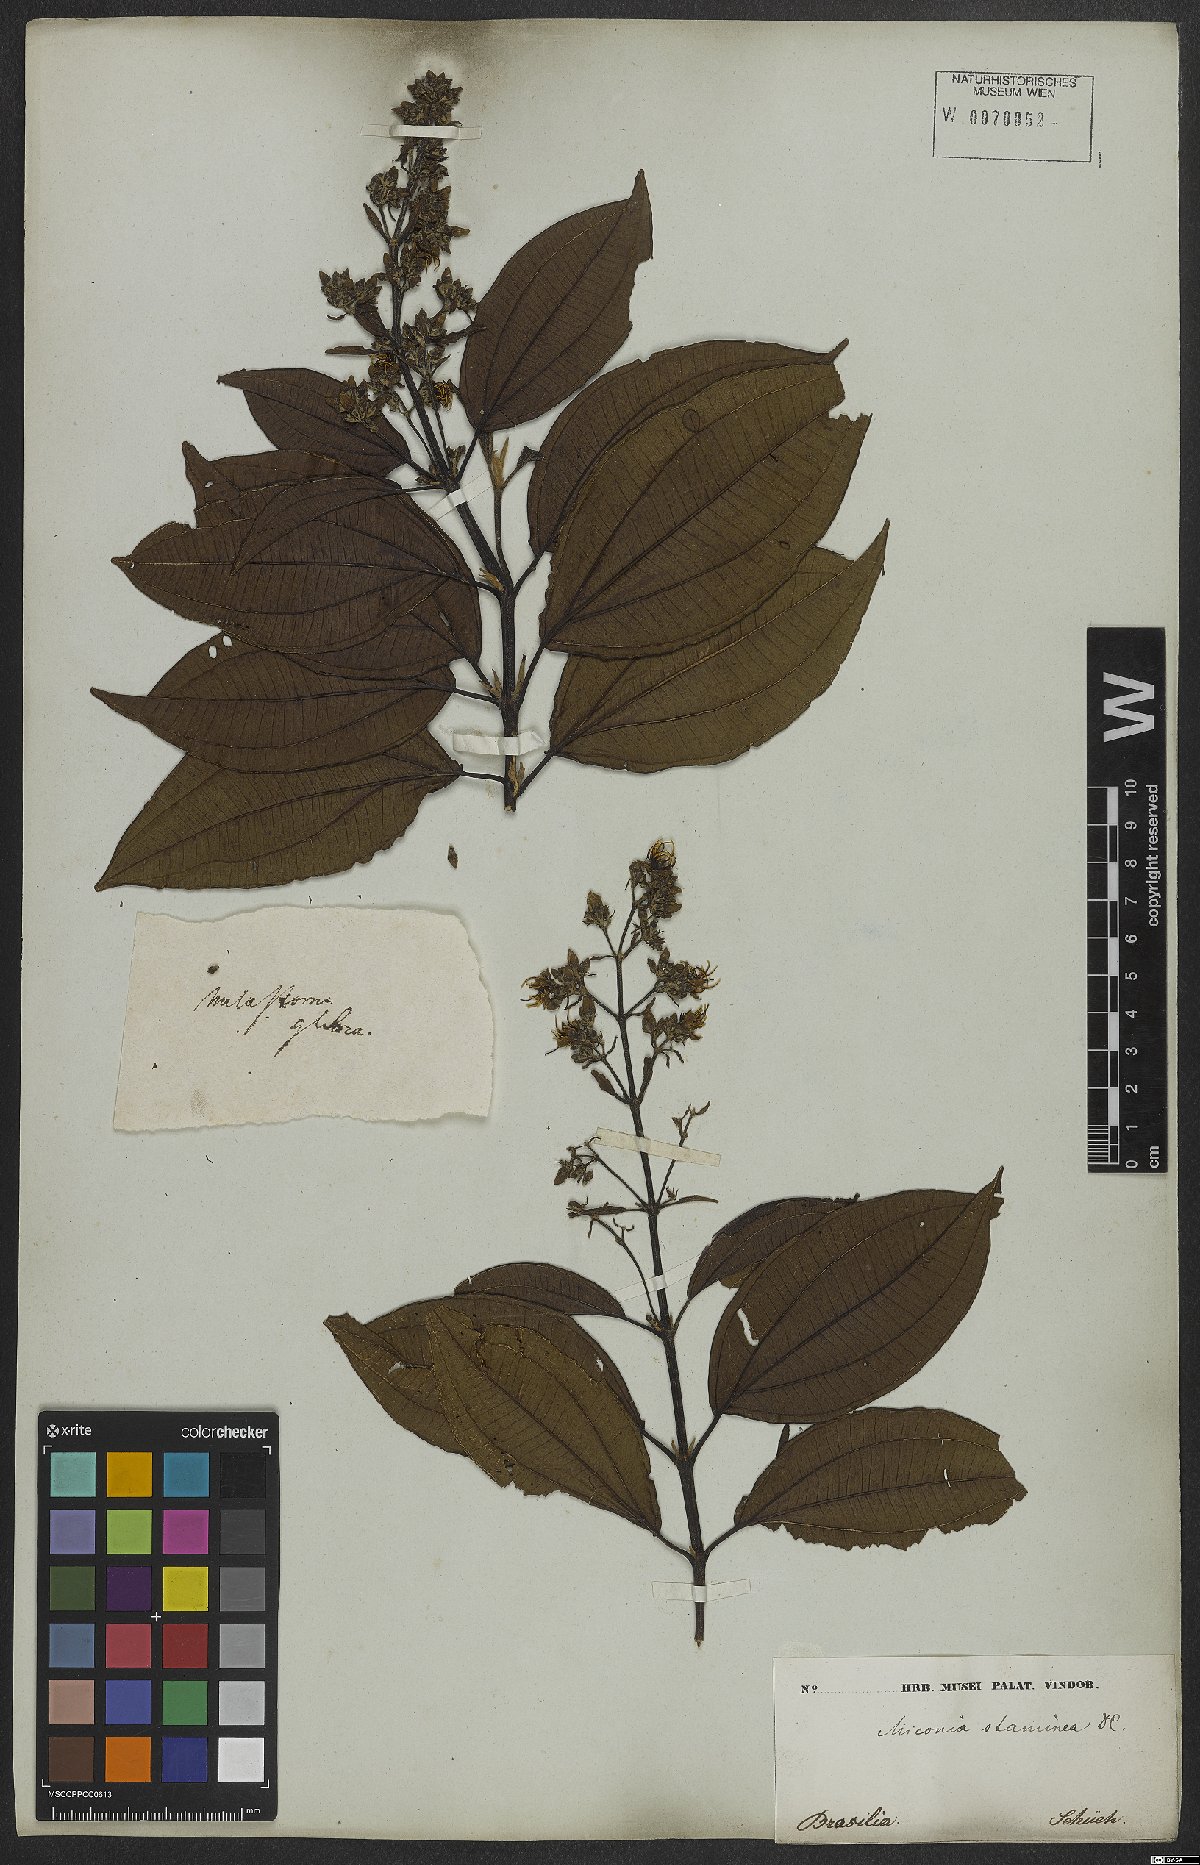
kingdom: Plantae
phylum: Tracheophyta
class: Magnoliopsida
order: Myrtales
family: Melastomataceae
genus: Miconia
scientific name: Miconia staminea
